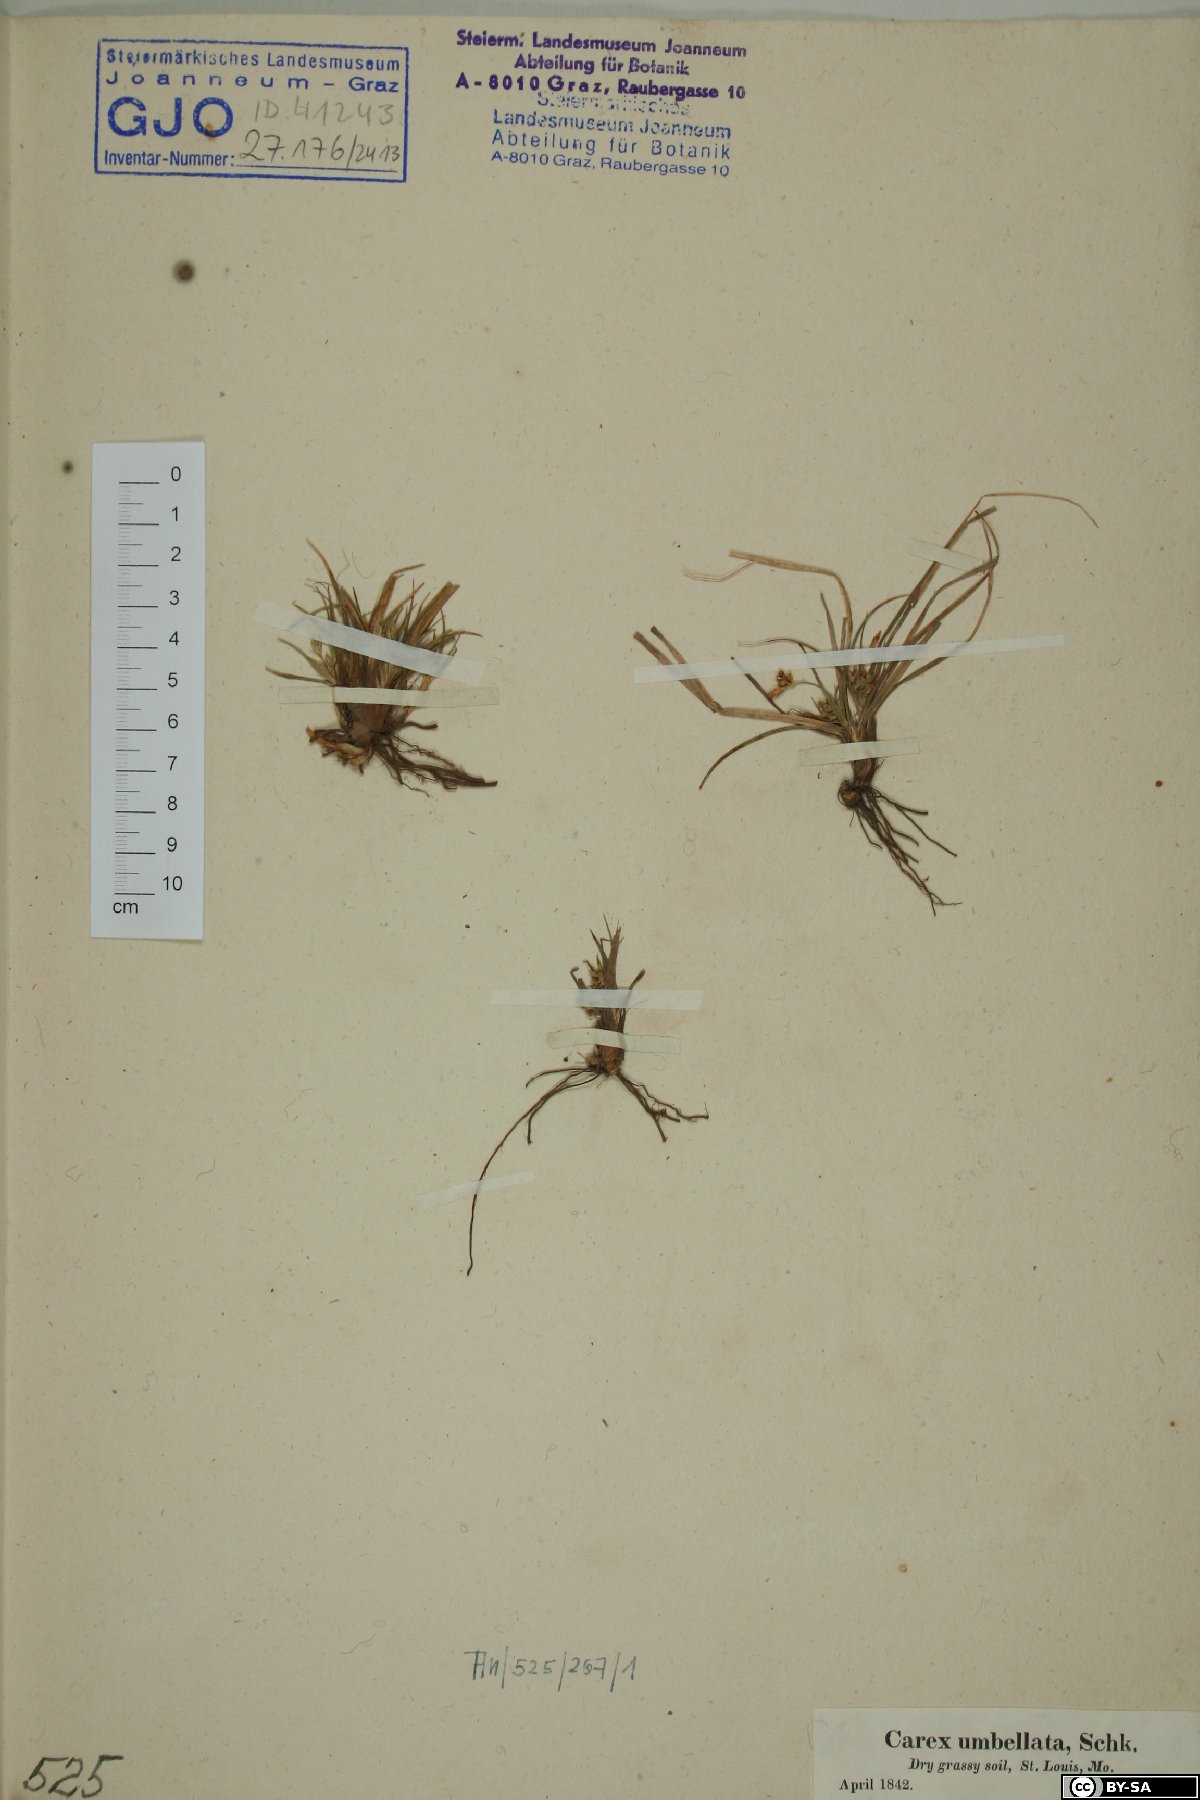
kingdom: Plantae
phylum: Tracheophyta
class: Liliopsida
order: Poales
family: Cyperaceae
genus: Carex
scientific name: Carex umbellata
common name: Early oak sedge
